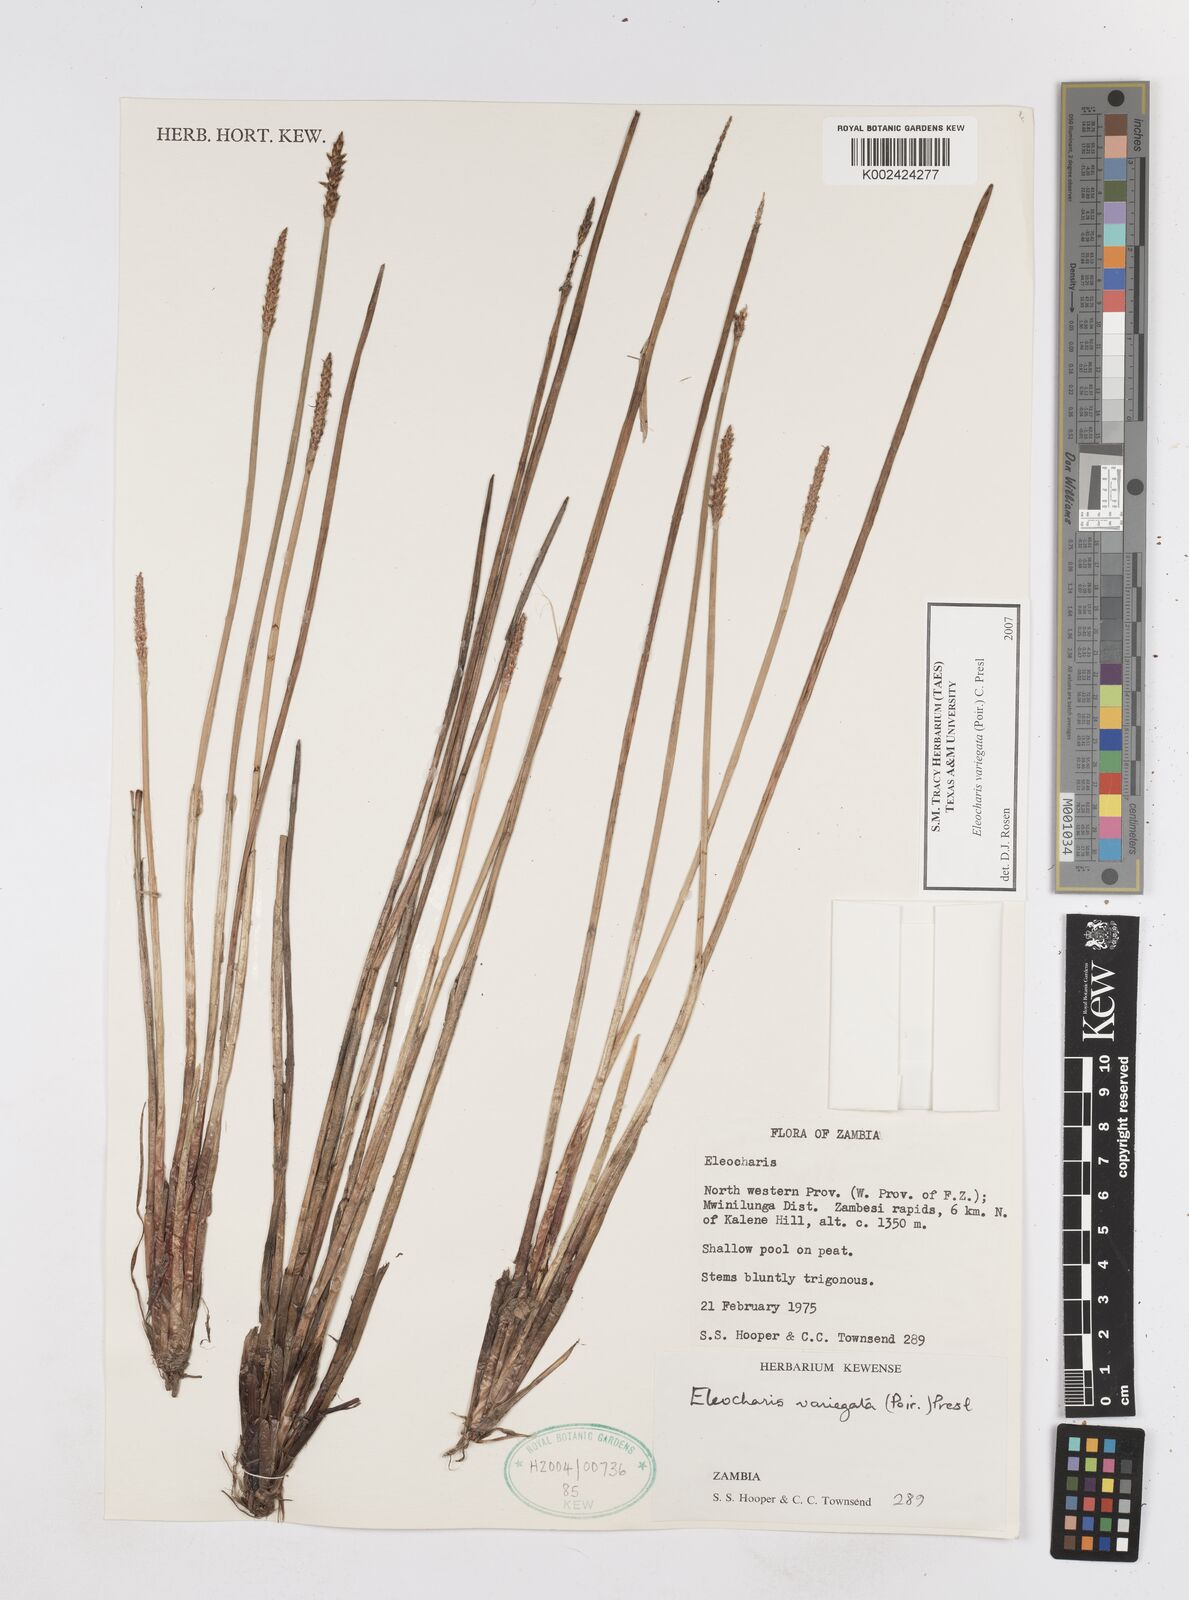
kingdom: Plantae
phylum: Tracheophyta
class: Liliopsida
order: Poales
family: Cyperaceae
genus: Eleocharis
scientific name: Eleocharis variegata
